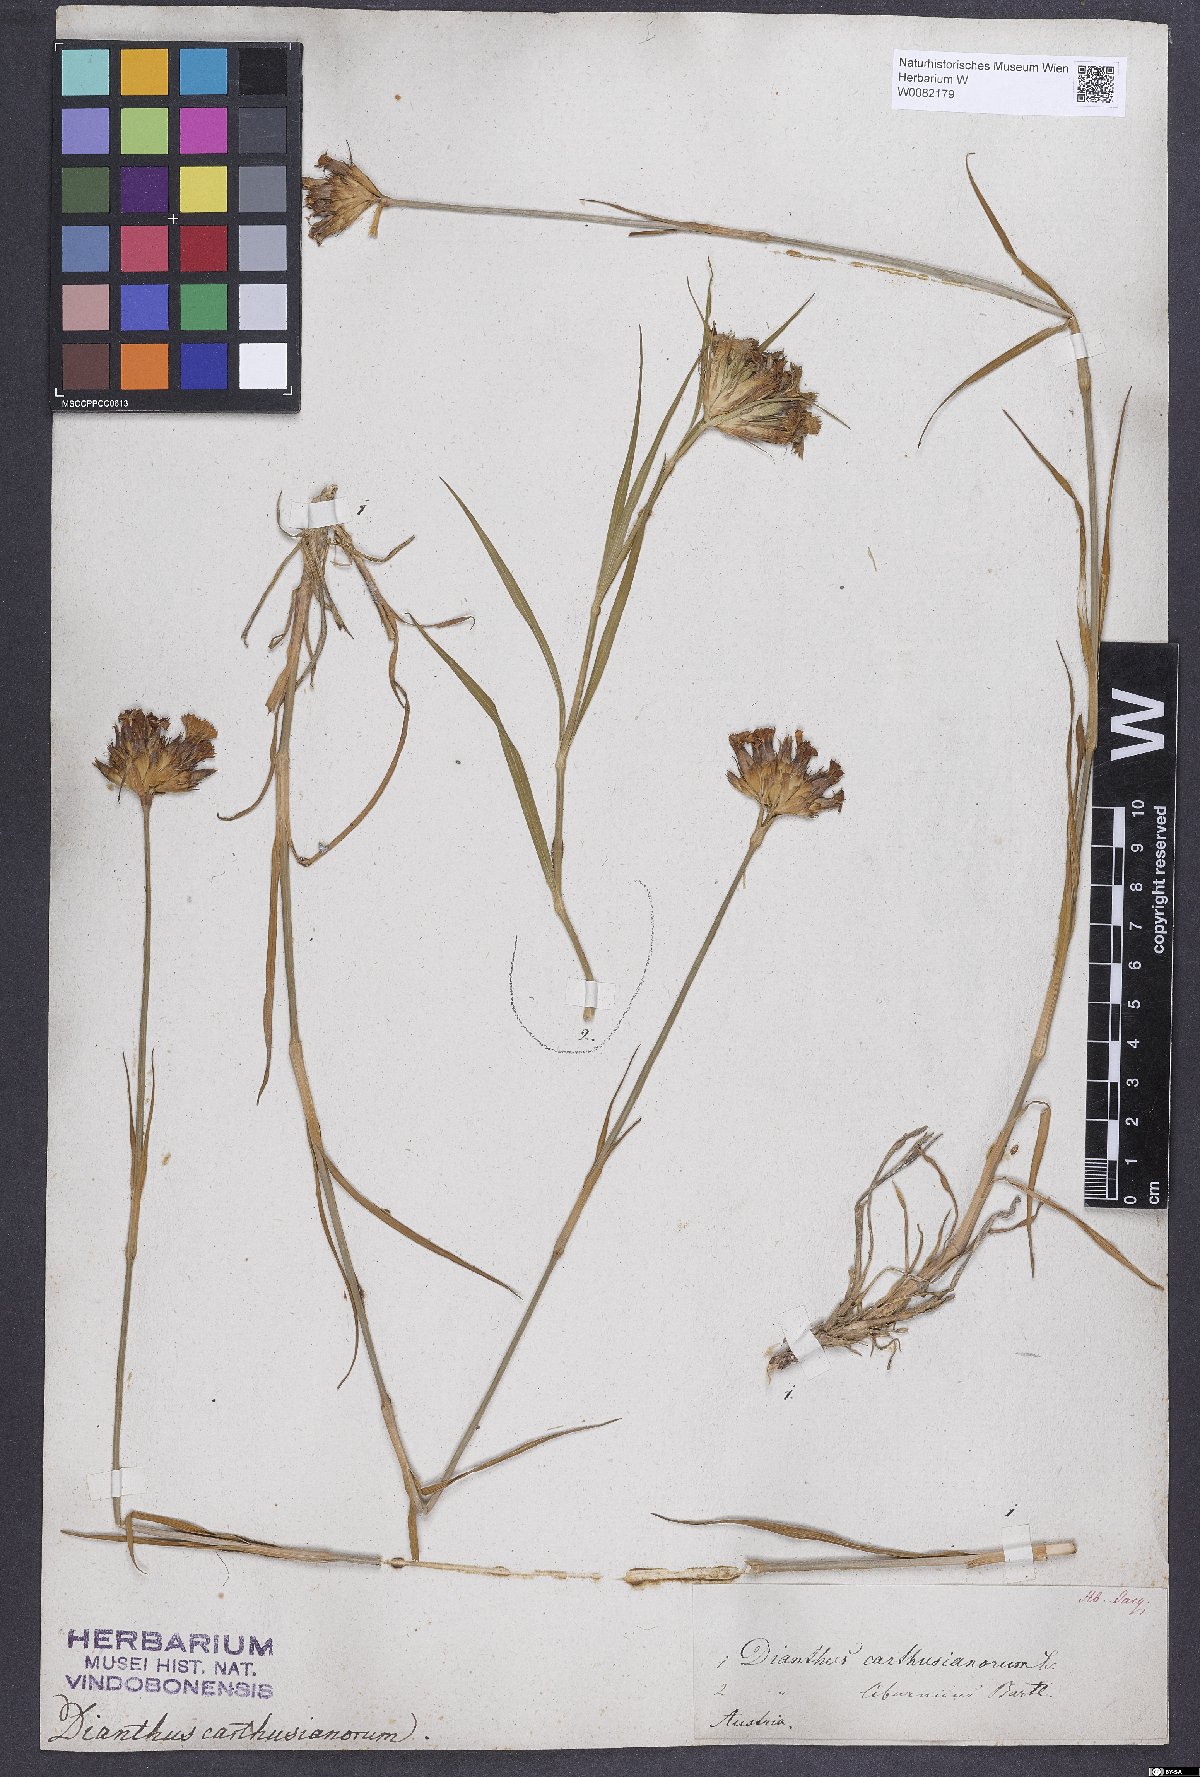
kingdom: Plantae
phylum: Tracheophyta
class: Magnoliopsida
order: Caryophyllales
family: Caryophyllaceae
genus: Dianthus
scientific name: Dianthus carthusianorum
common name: Carthusian pink
